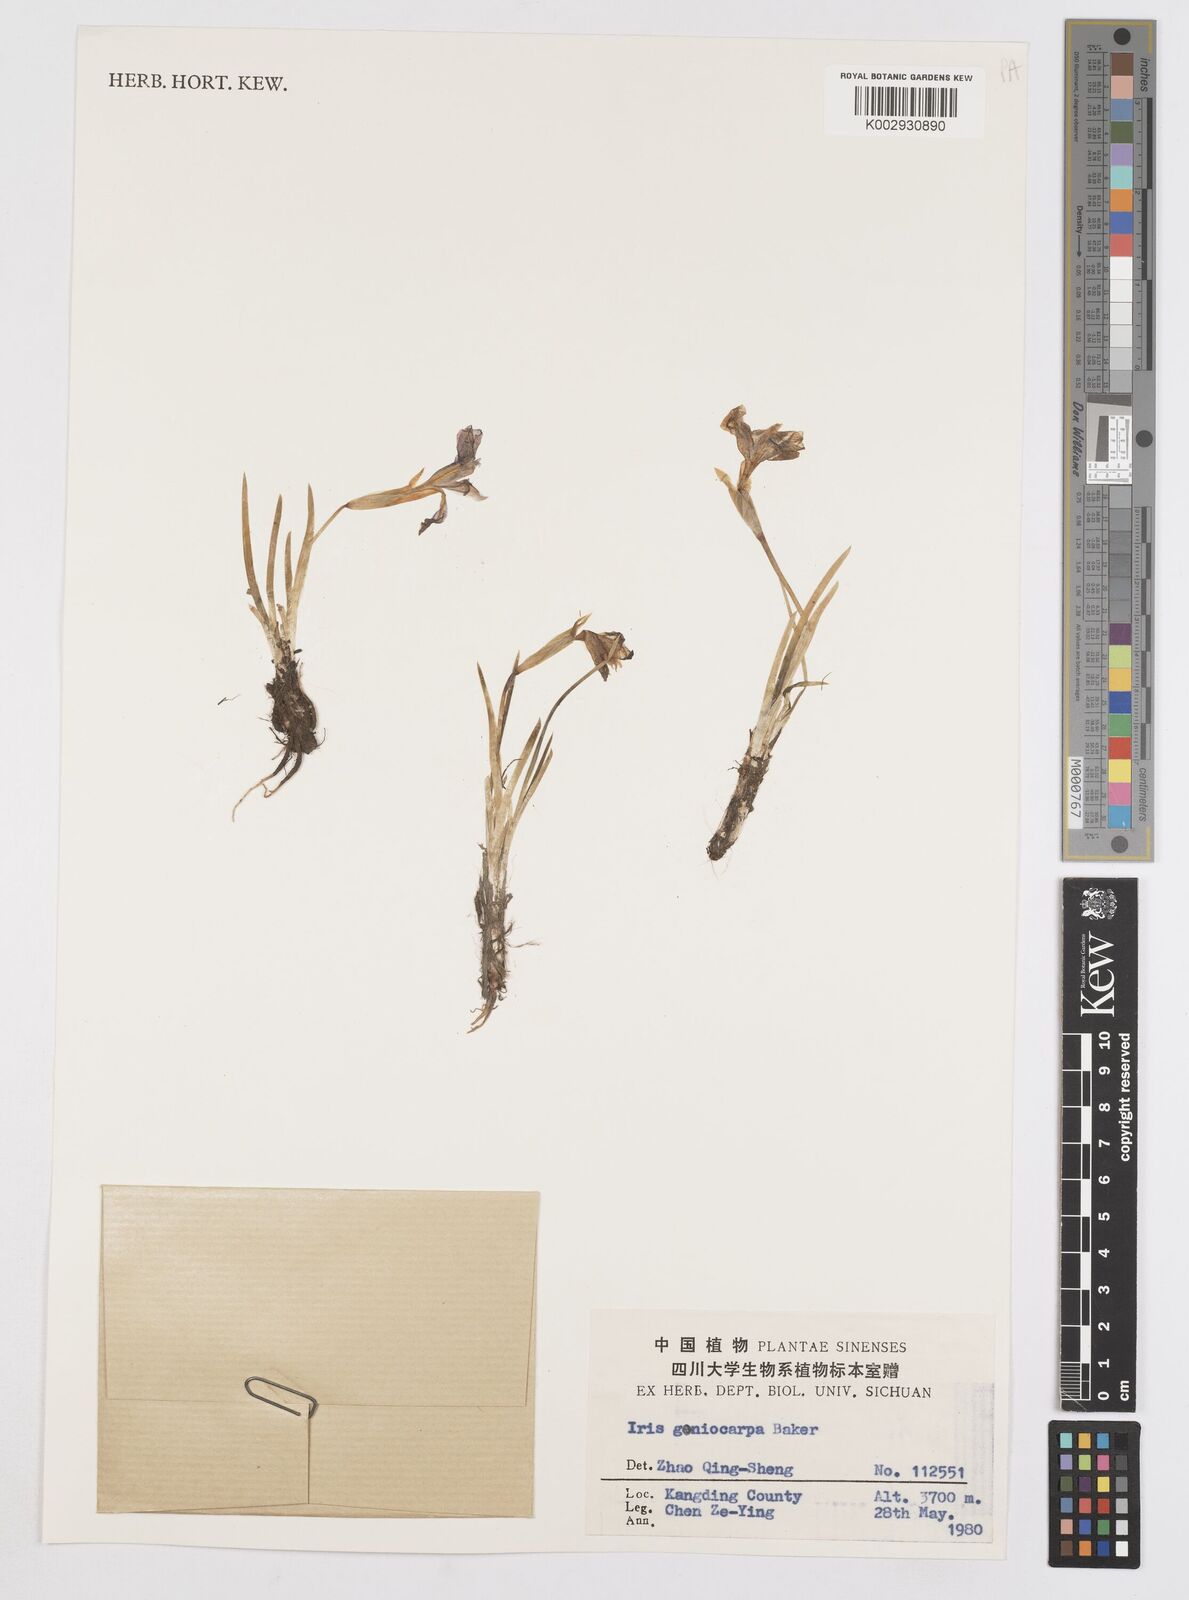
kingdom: Plantae
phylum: Tracheophyta
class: Liliopsida
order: Asparagales
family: Iridaceae
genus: Iris
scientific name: Iris goniocarpa
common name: Angular-fruit iris
